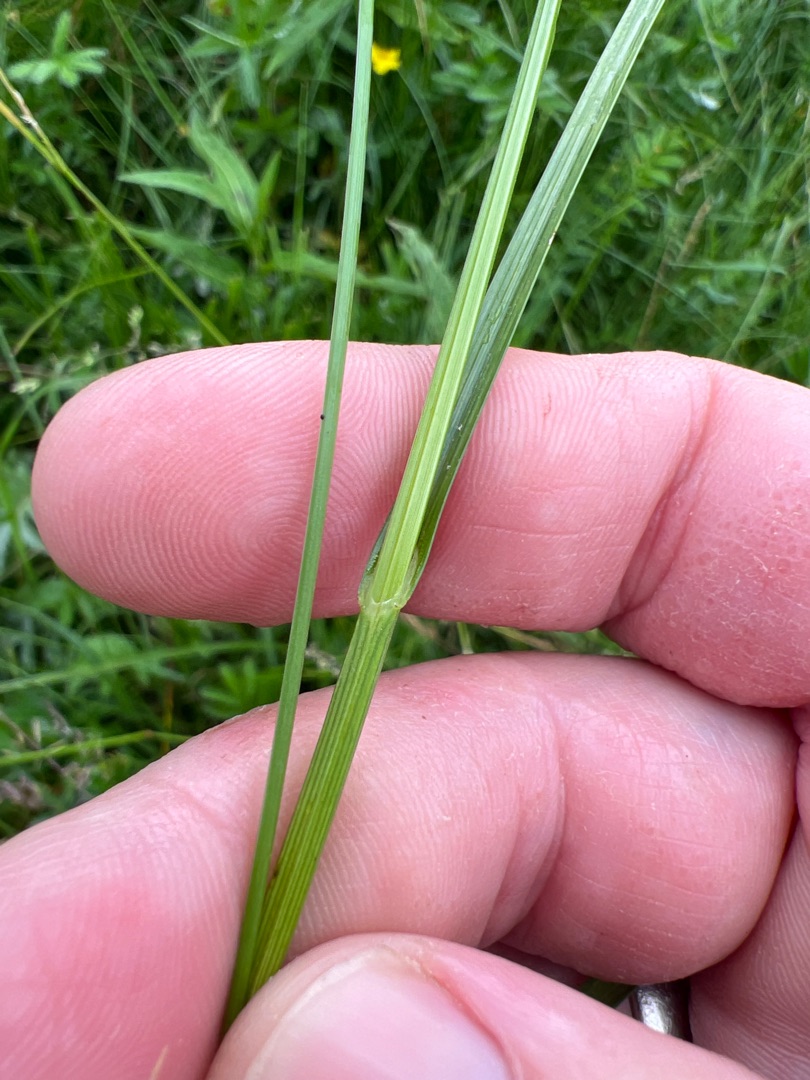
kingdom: Plantae
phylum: Tracheophyta
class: Liliopsida
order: Poales
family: Cyperaceae
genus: Carex
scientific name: Carex disticha
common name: Toradet star
